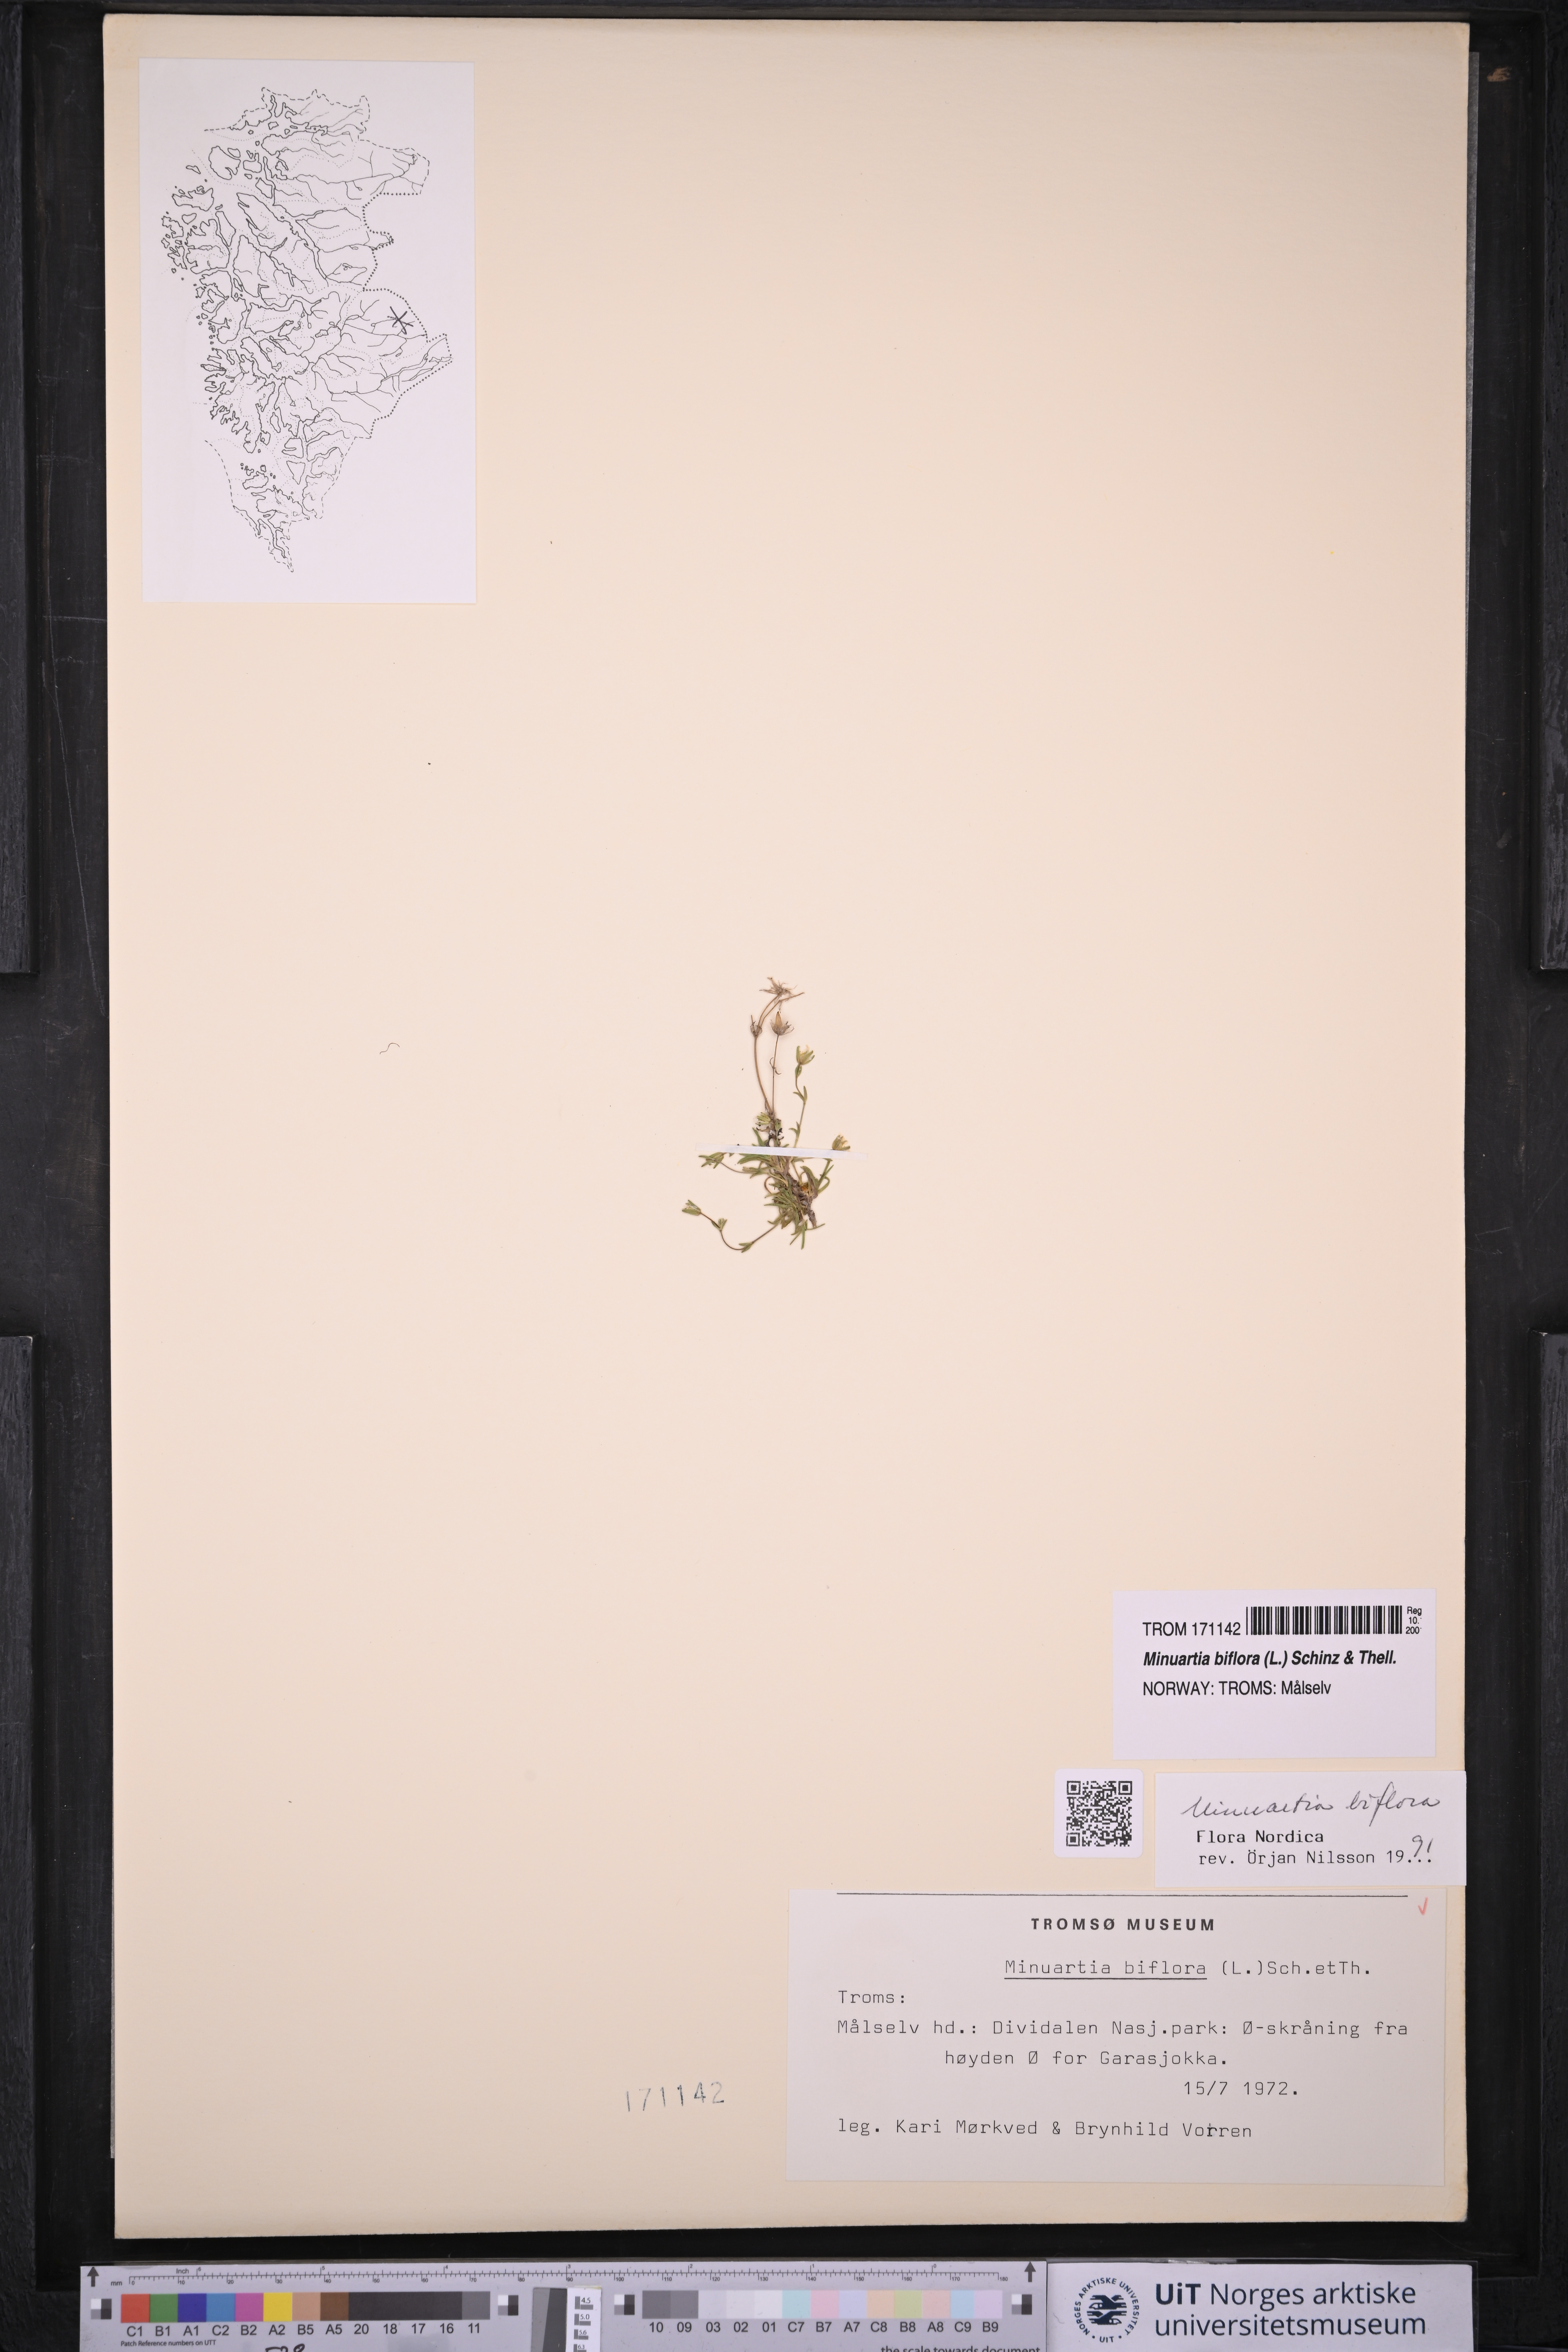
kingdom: Plantae
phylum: Tracheophyta
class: Magnoliopsida
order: Caryophyllales
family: Caryophyllaceae
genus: Cherleria
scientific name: Cherleria biflora
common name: Mountain sandwort
